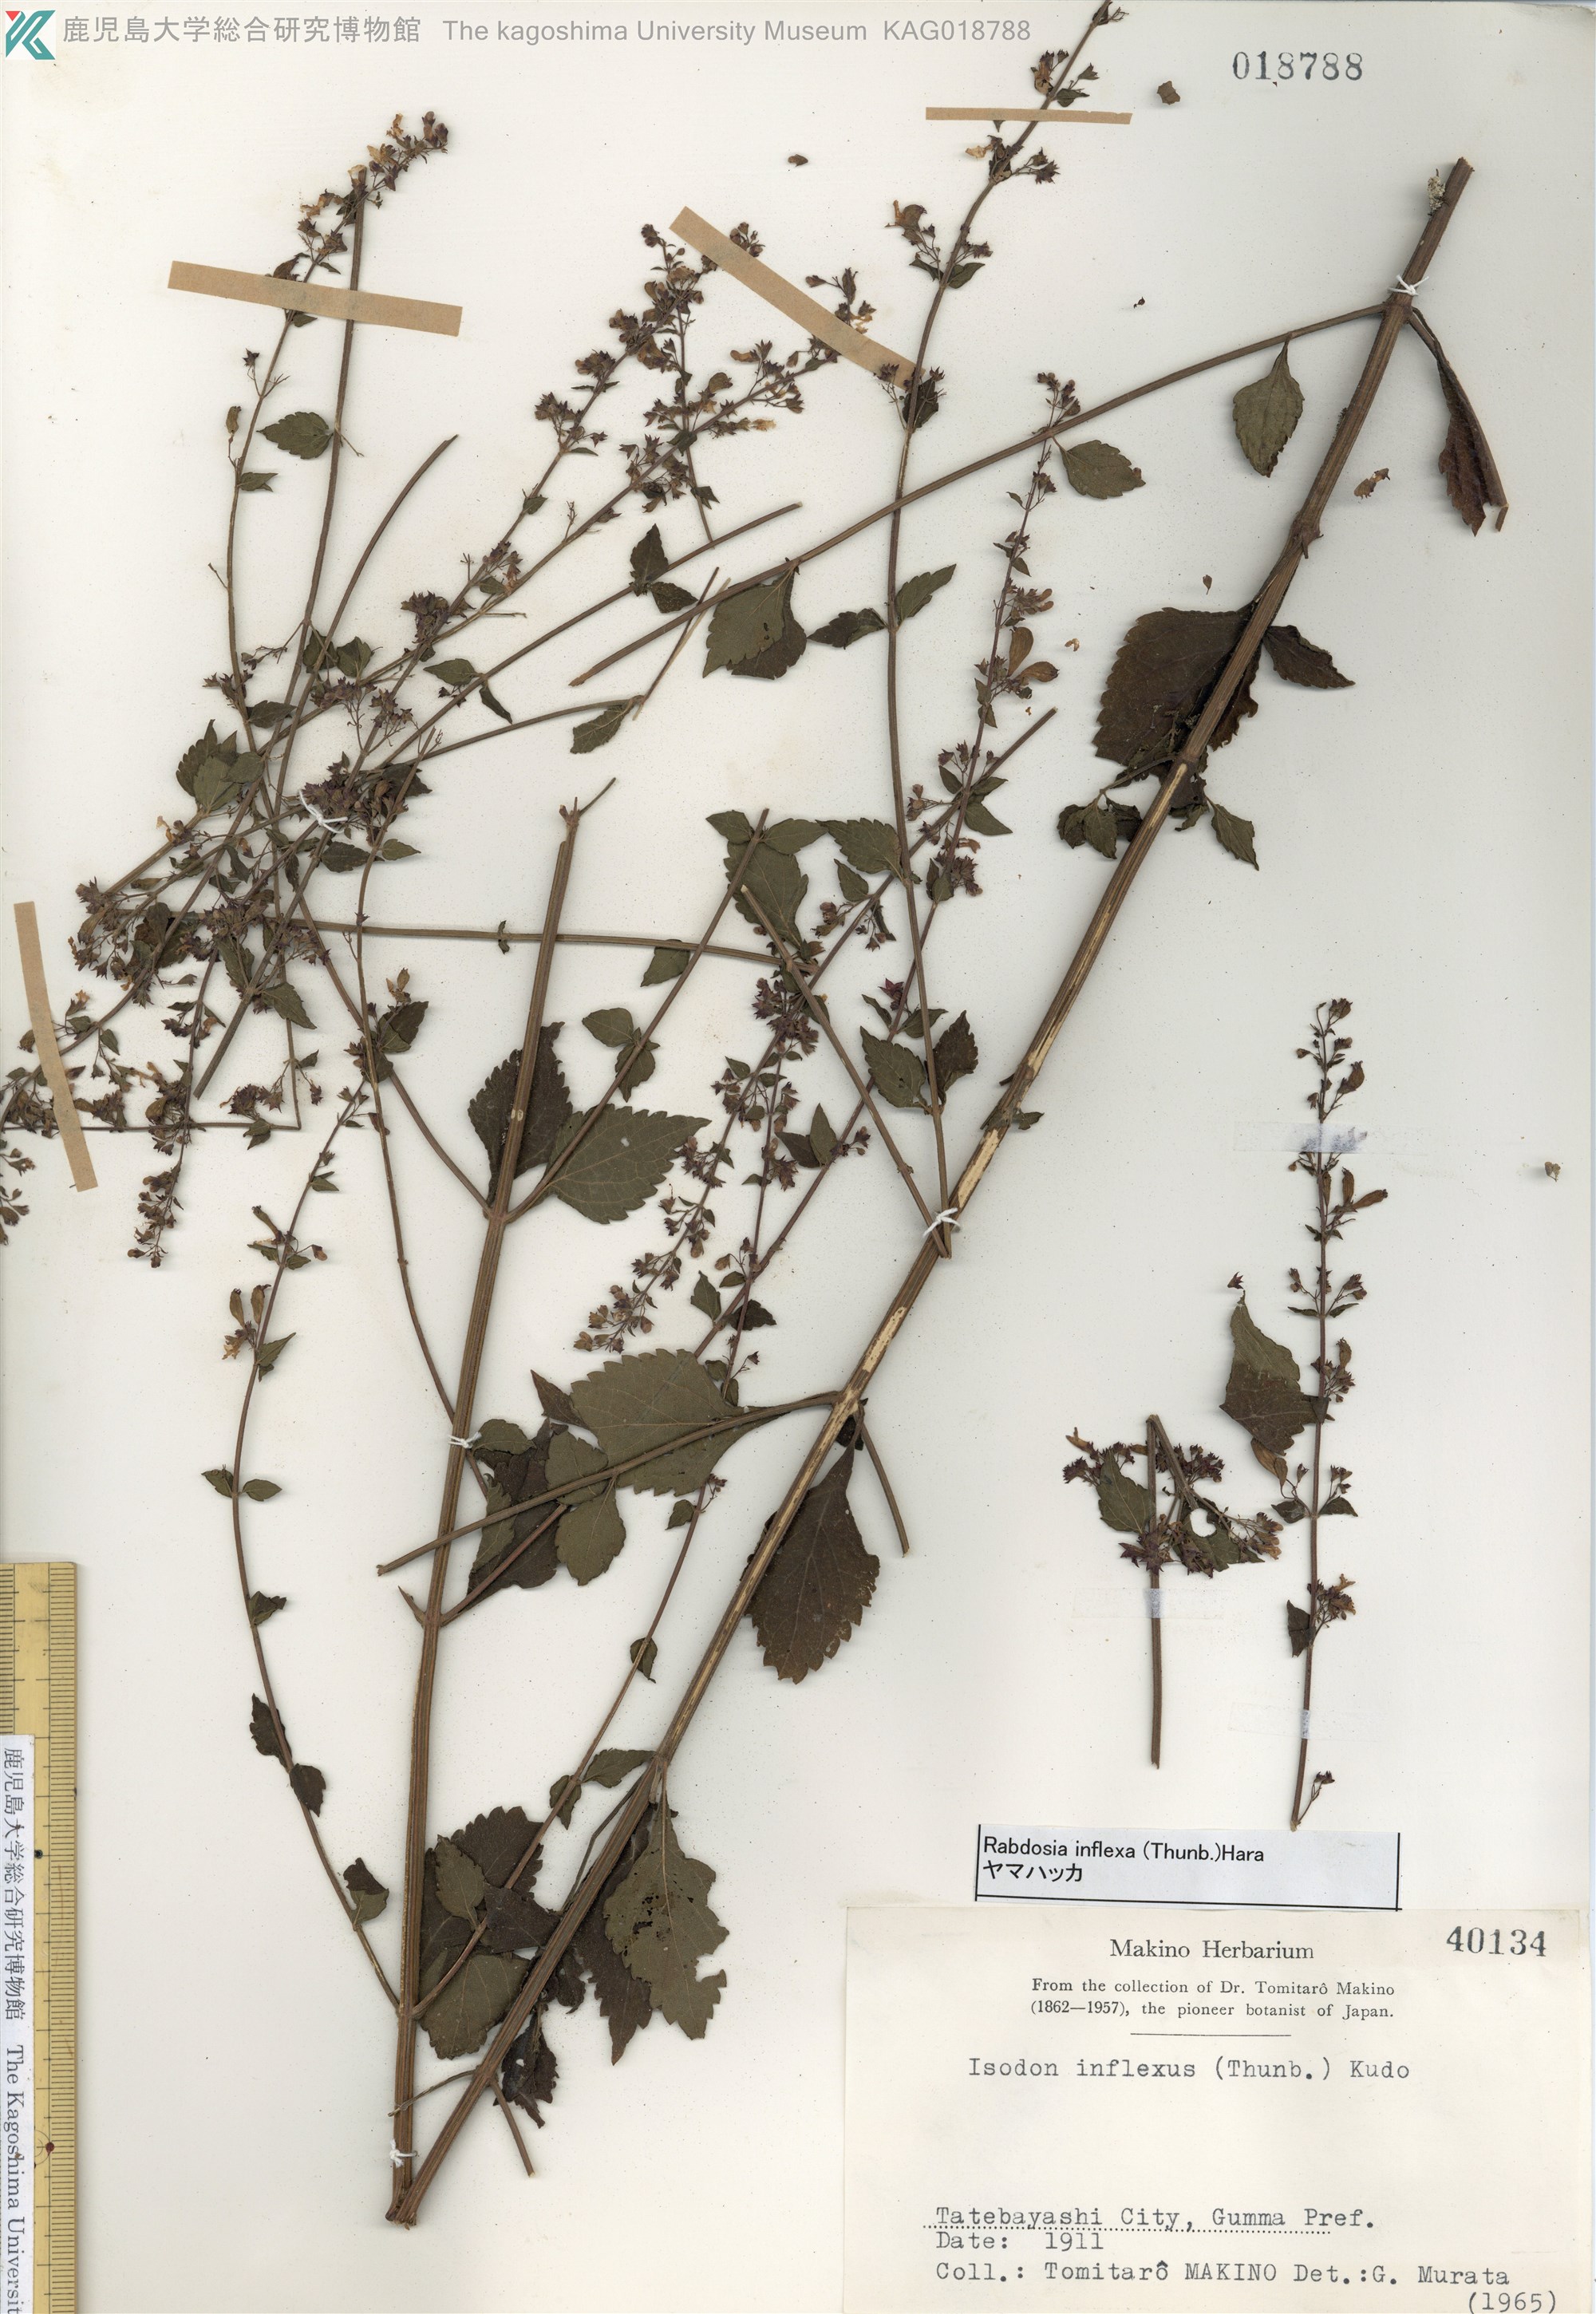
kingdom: Plantae
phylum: Tracheophyta
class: Magnoliopsida
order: Lamiales
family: Lamiaceae
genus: Isodon
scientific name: Isodon inflexus
